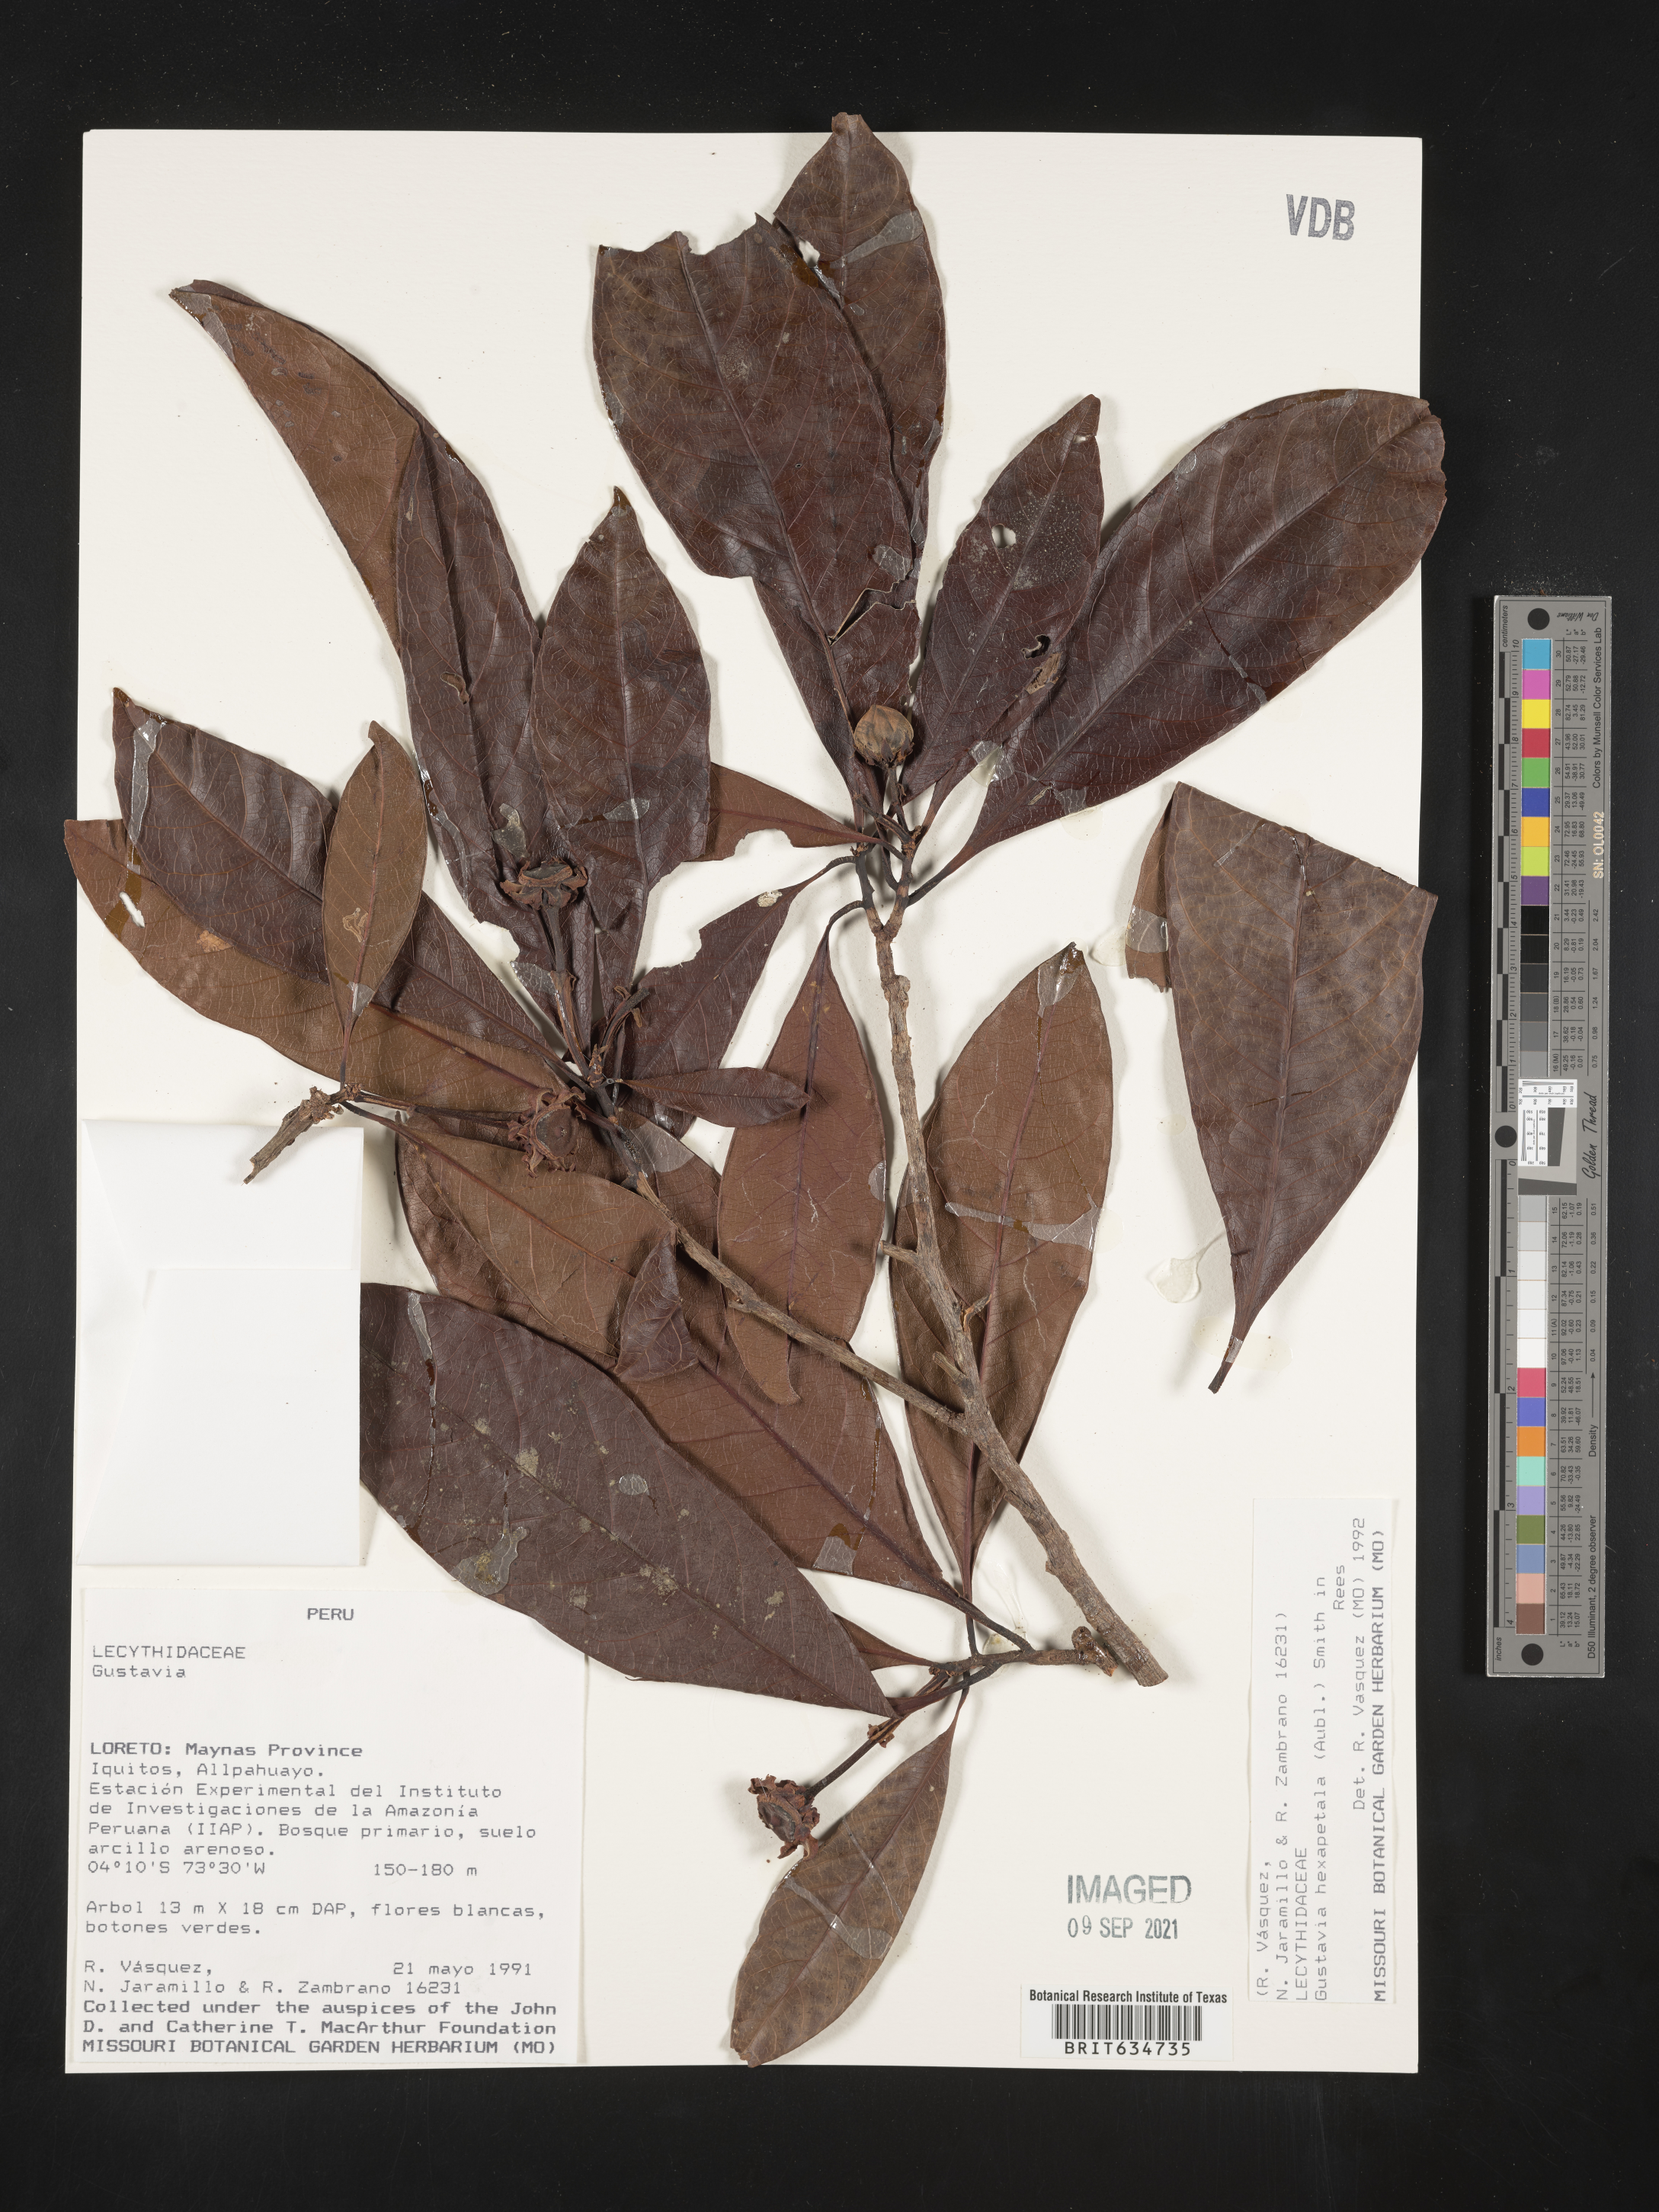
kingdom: Plantae
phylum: Tracheophyta
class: Magnoliopsida
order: Ericales
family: Lecythidaceae
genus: Gustavia
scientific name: Gustavia
